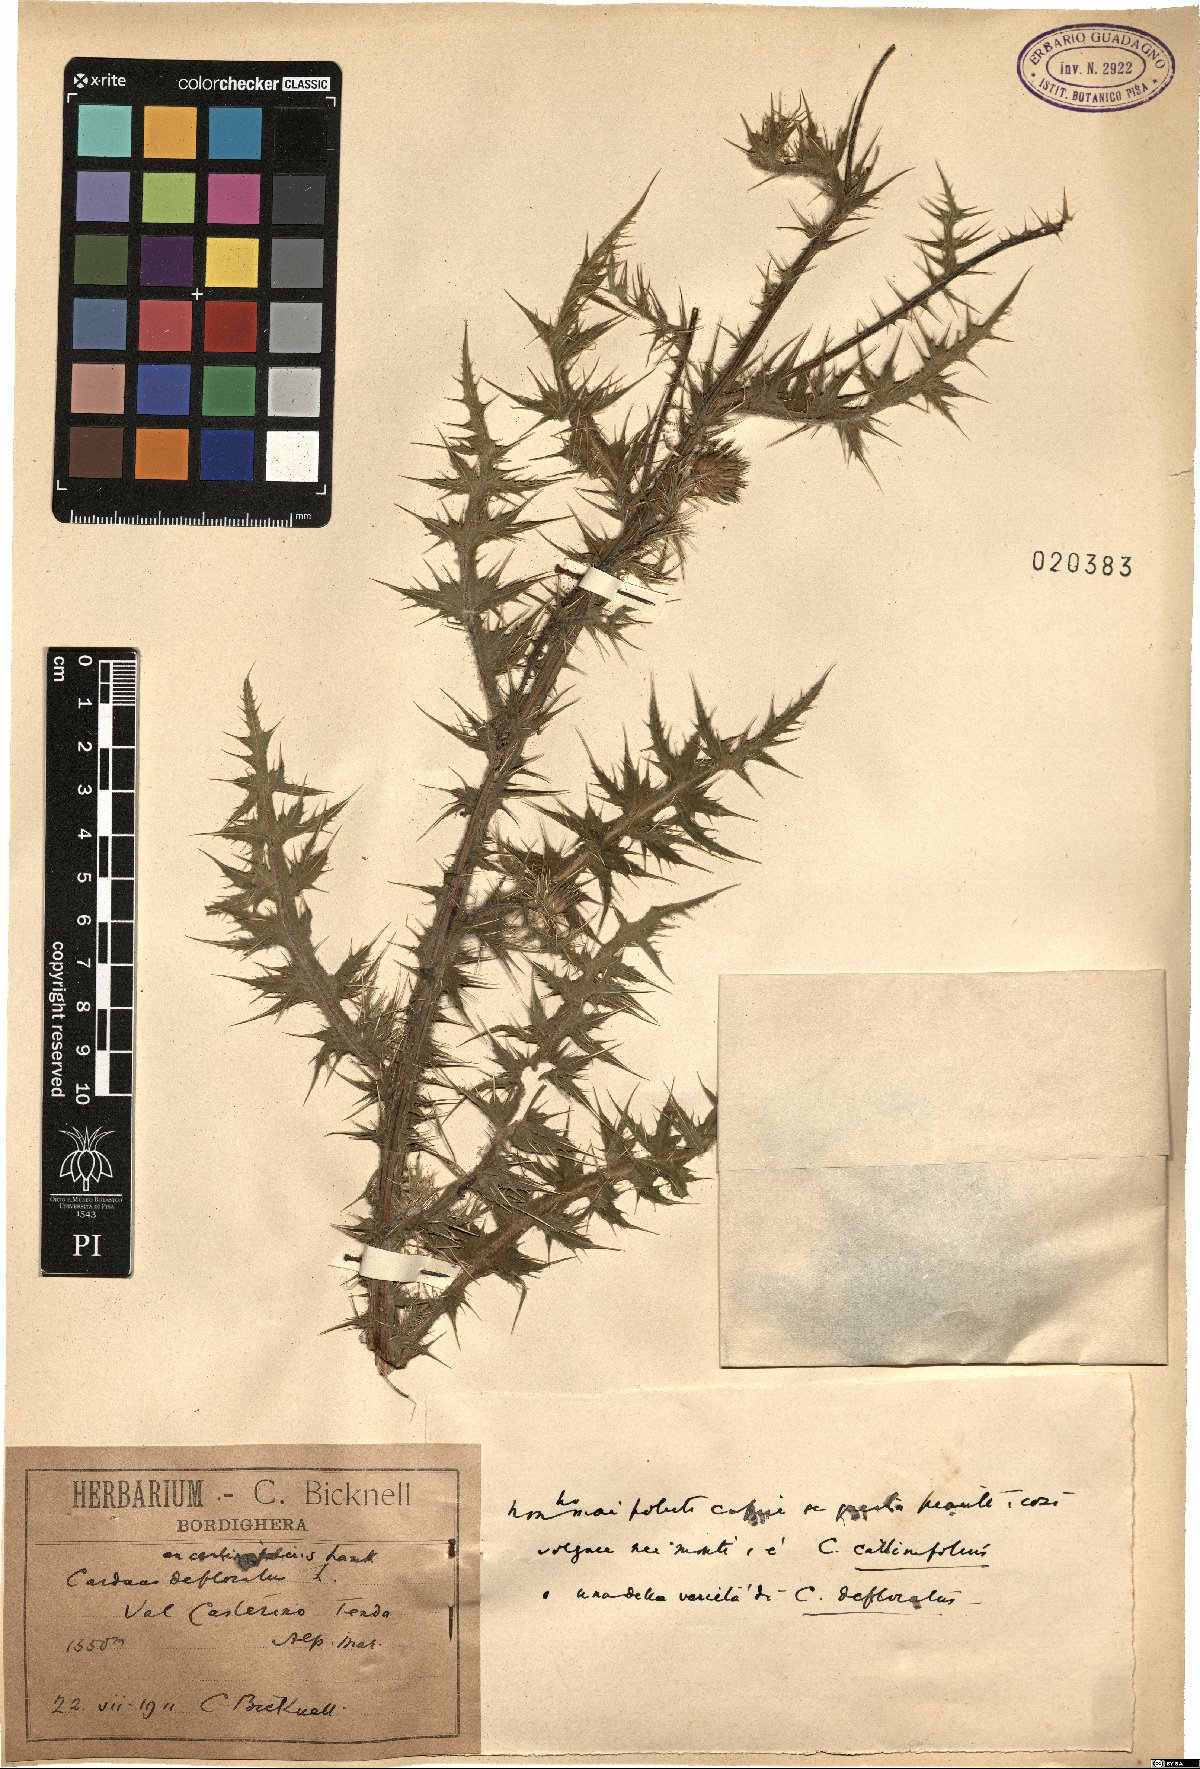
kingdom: Plantae
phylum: Tracheophyta
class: Magnoliopsida
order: Asterales
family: Asteraceae
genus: Carduus
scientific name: Carduus defloratus
